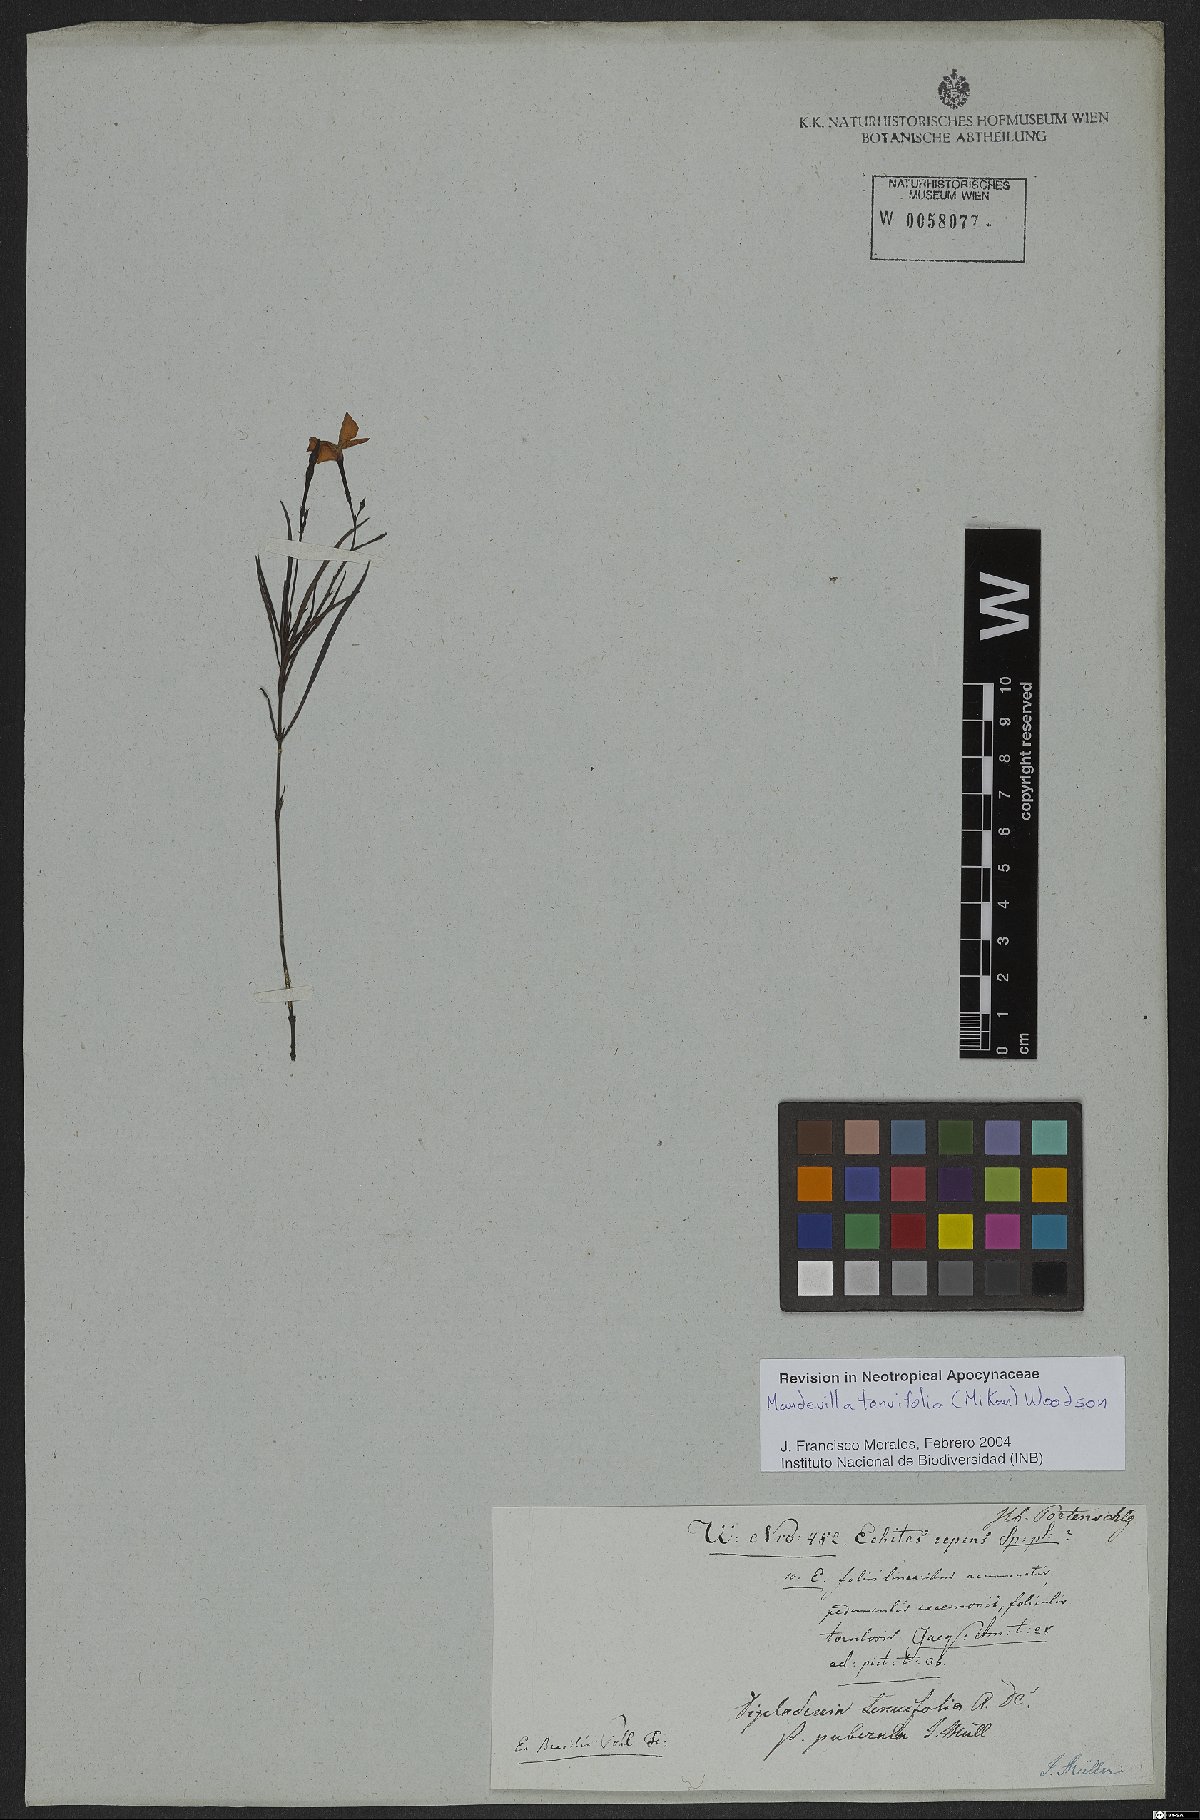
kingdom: Plantae
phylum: Tracheophyta
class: Magnoliopsida
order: Gentianales
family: Apocynaceae
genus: Mandevilla
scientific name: Mandevilla tenuifolia
